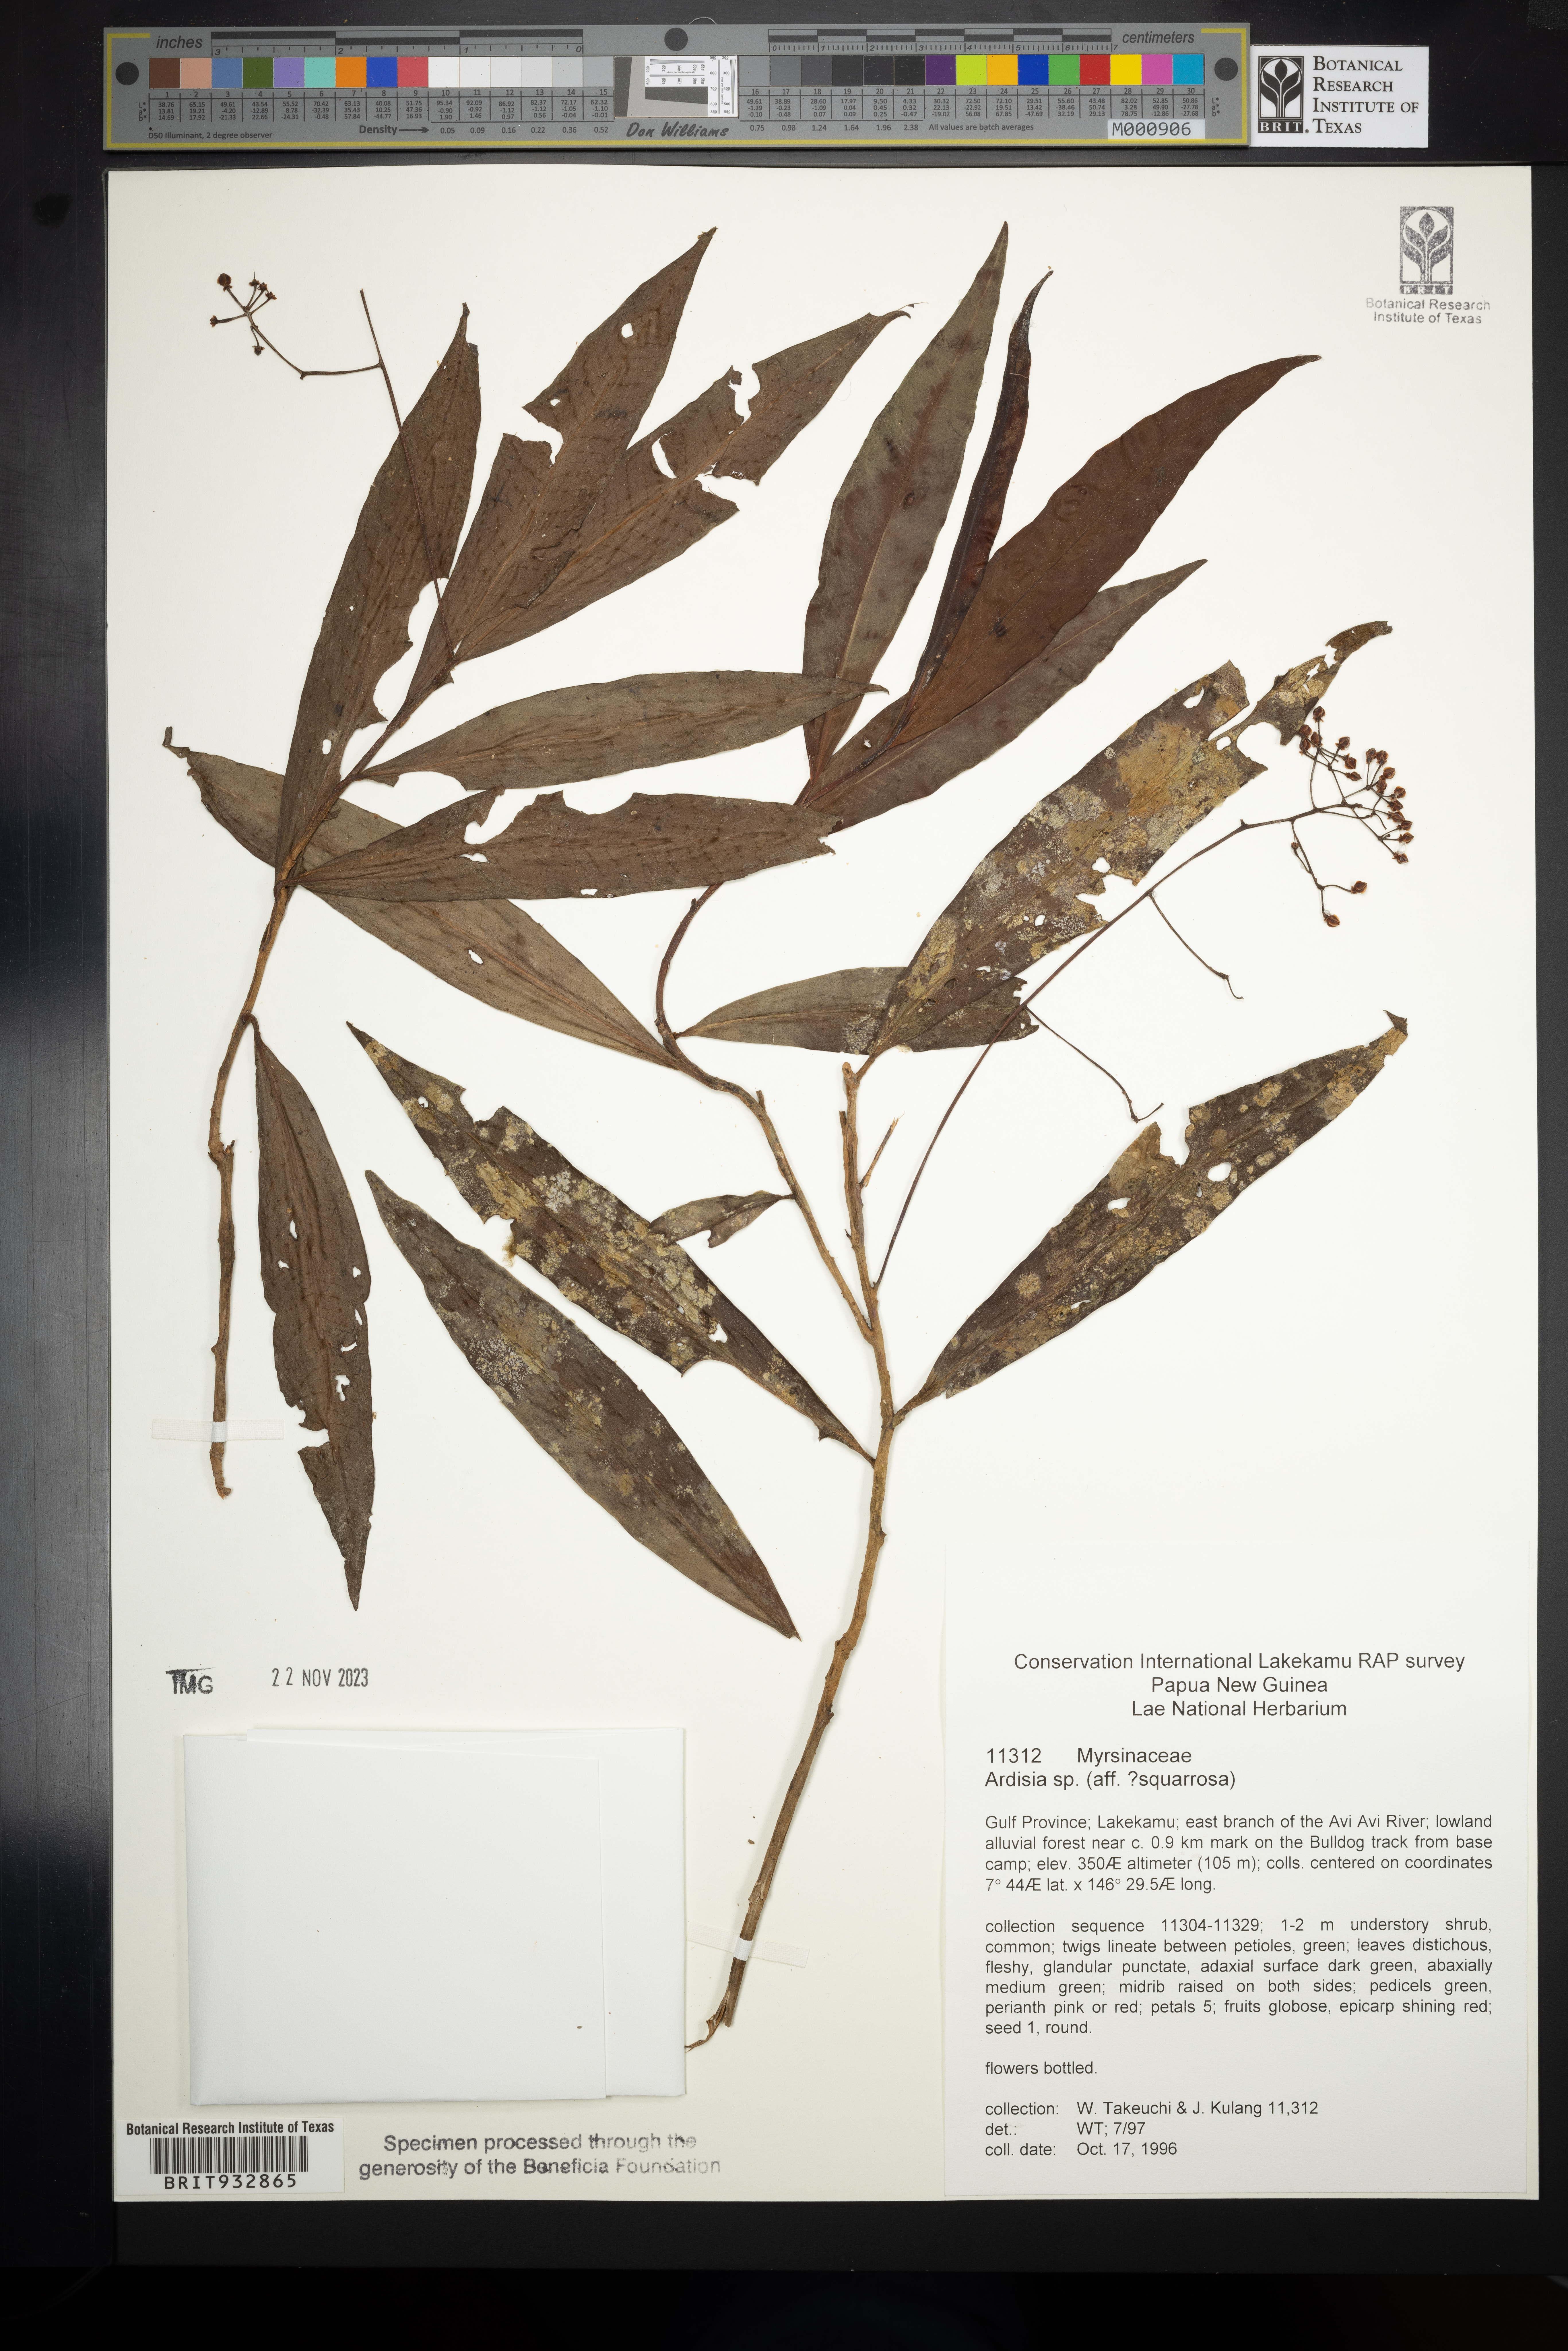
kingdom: Plantae
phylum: Tracheophyta
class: Magnoliopsida
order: Ericales
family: Primulaceae
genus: Ardisia
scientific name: Ardisia
